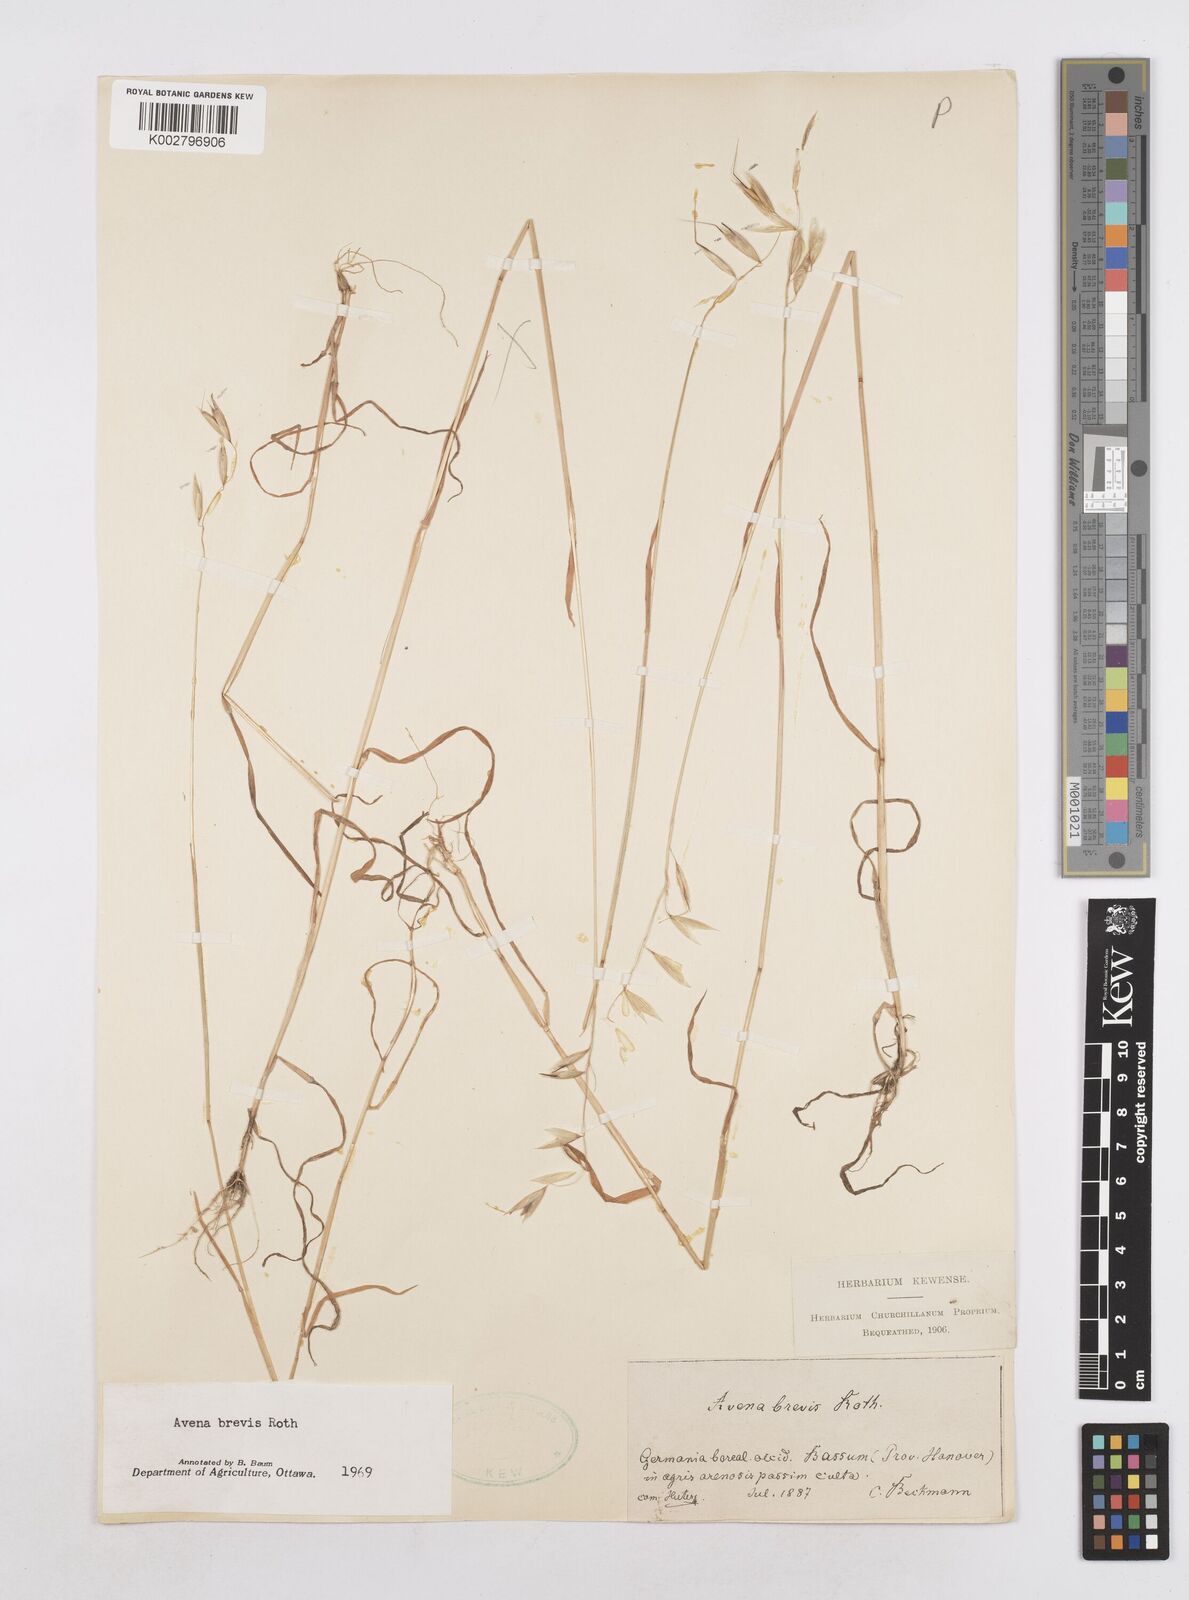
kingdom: Plantae
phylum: Tracheophyta
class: Liliopsida
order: Poales
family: Poaceae
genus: Avena
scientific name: Avena brevis
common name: Short oat
